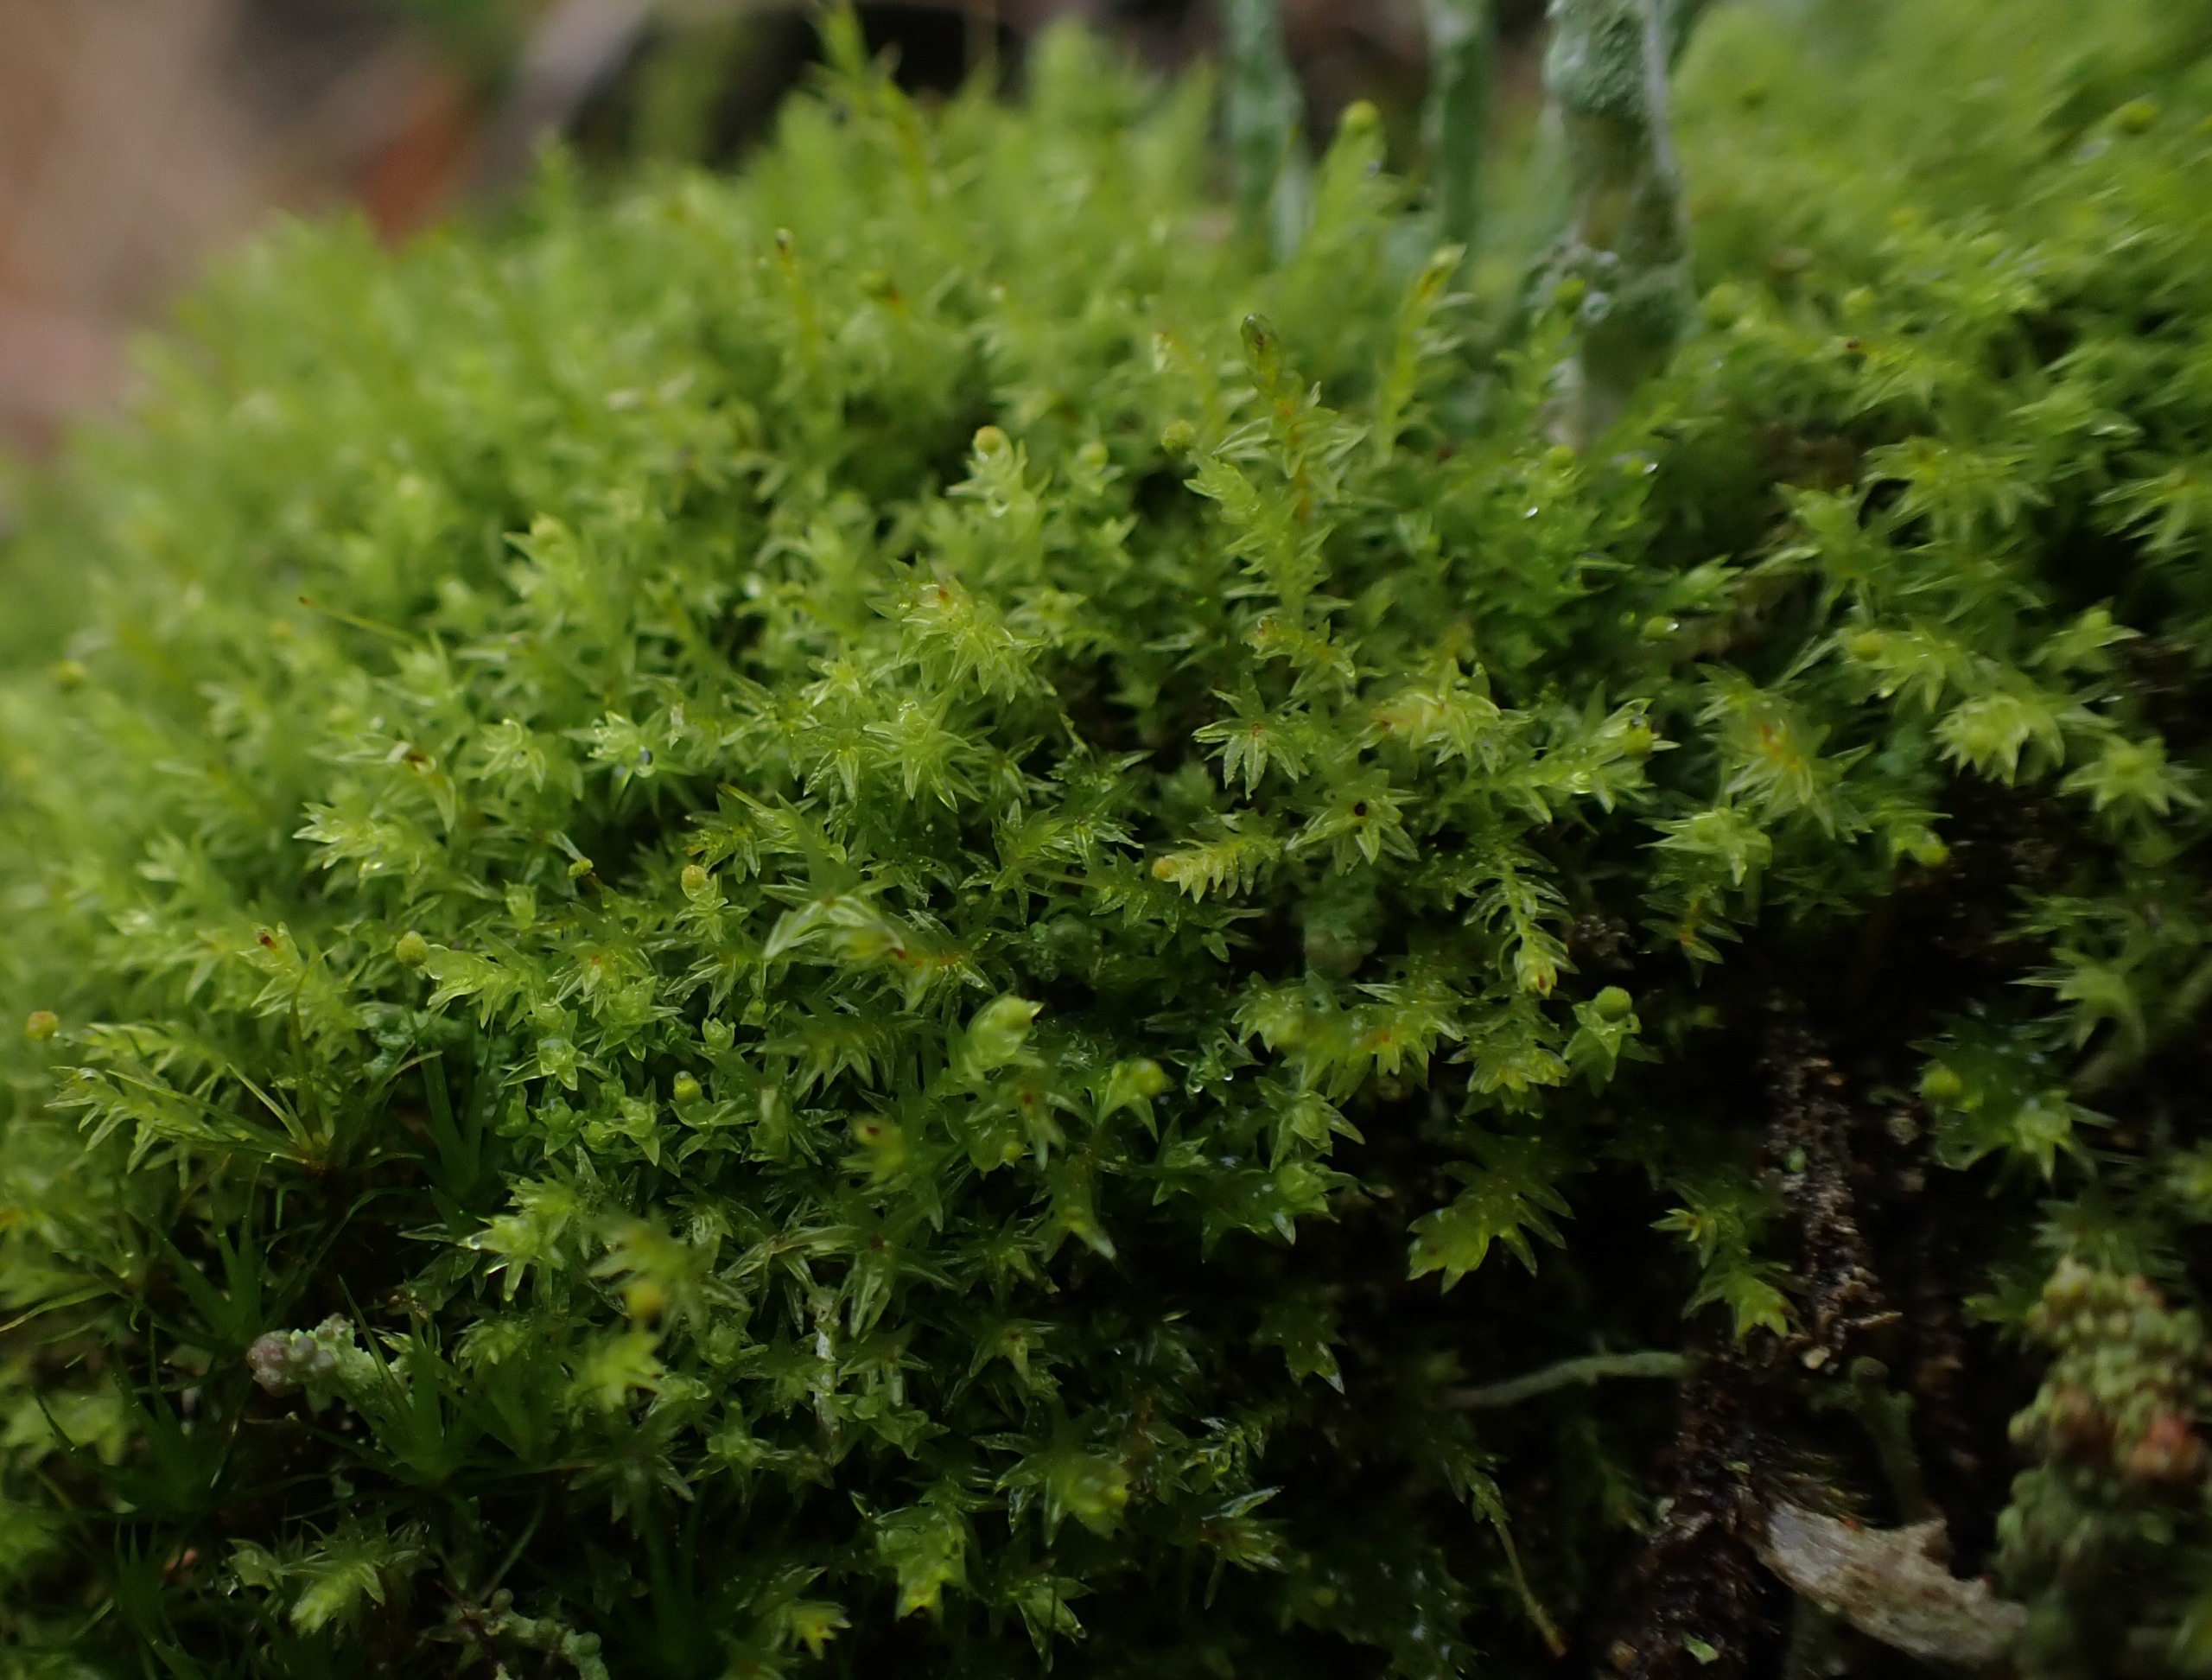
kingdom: Plantae
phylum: Bryophyta
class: Bryopsida
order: Aulacomniales
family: Aulacomniaceae
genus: Aulacomnium
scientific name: Aulacomnium androgynum
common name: Kugle-filtmos
